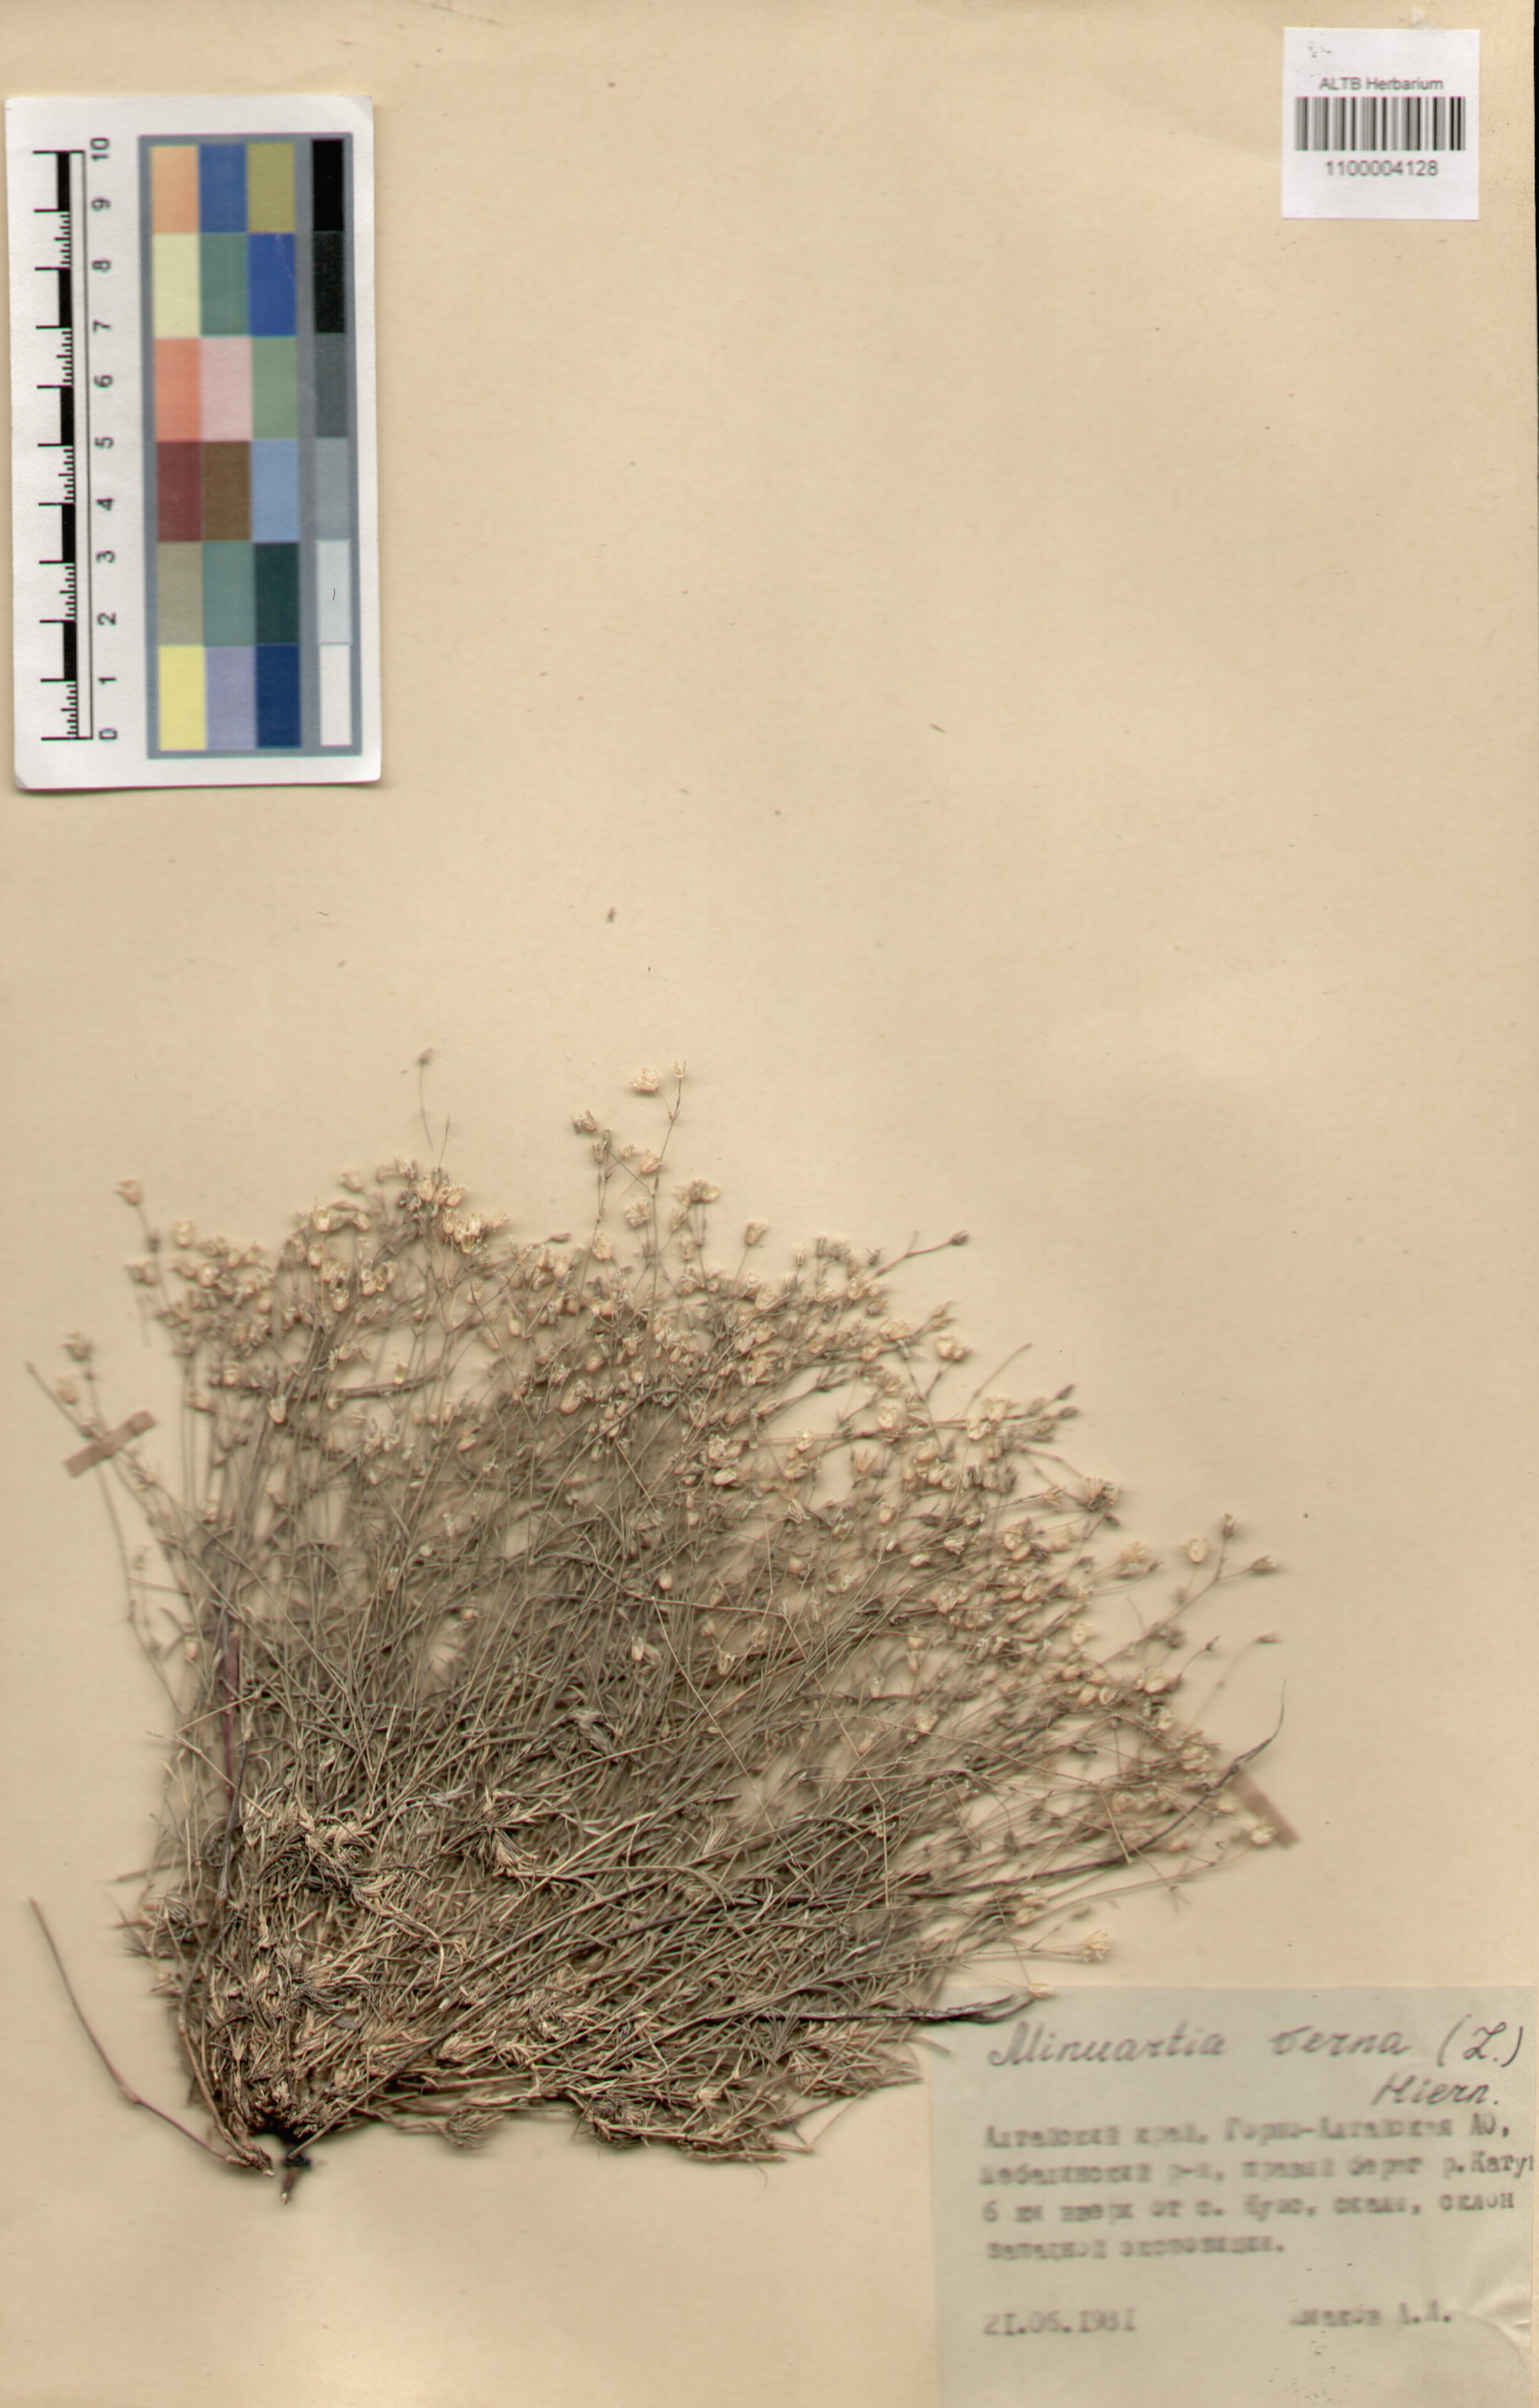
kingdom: Plantae
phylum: Tracheophyta
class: Magnoliopsida
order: Caryophyllales
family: Caryophyllaceae
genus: Sabulina
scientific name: Sabulina verna
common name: Spring sandwort
